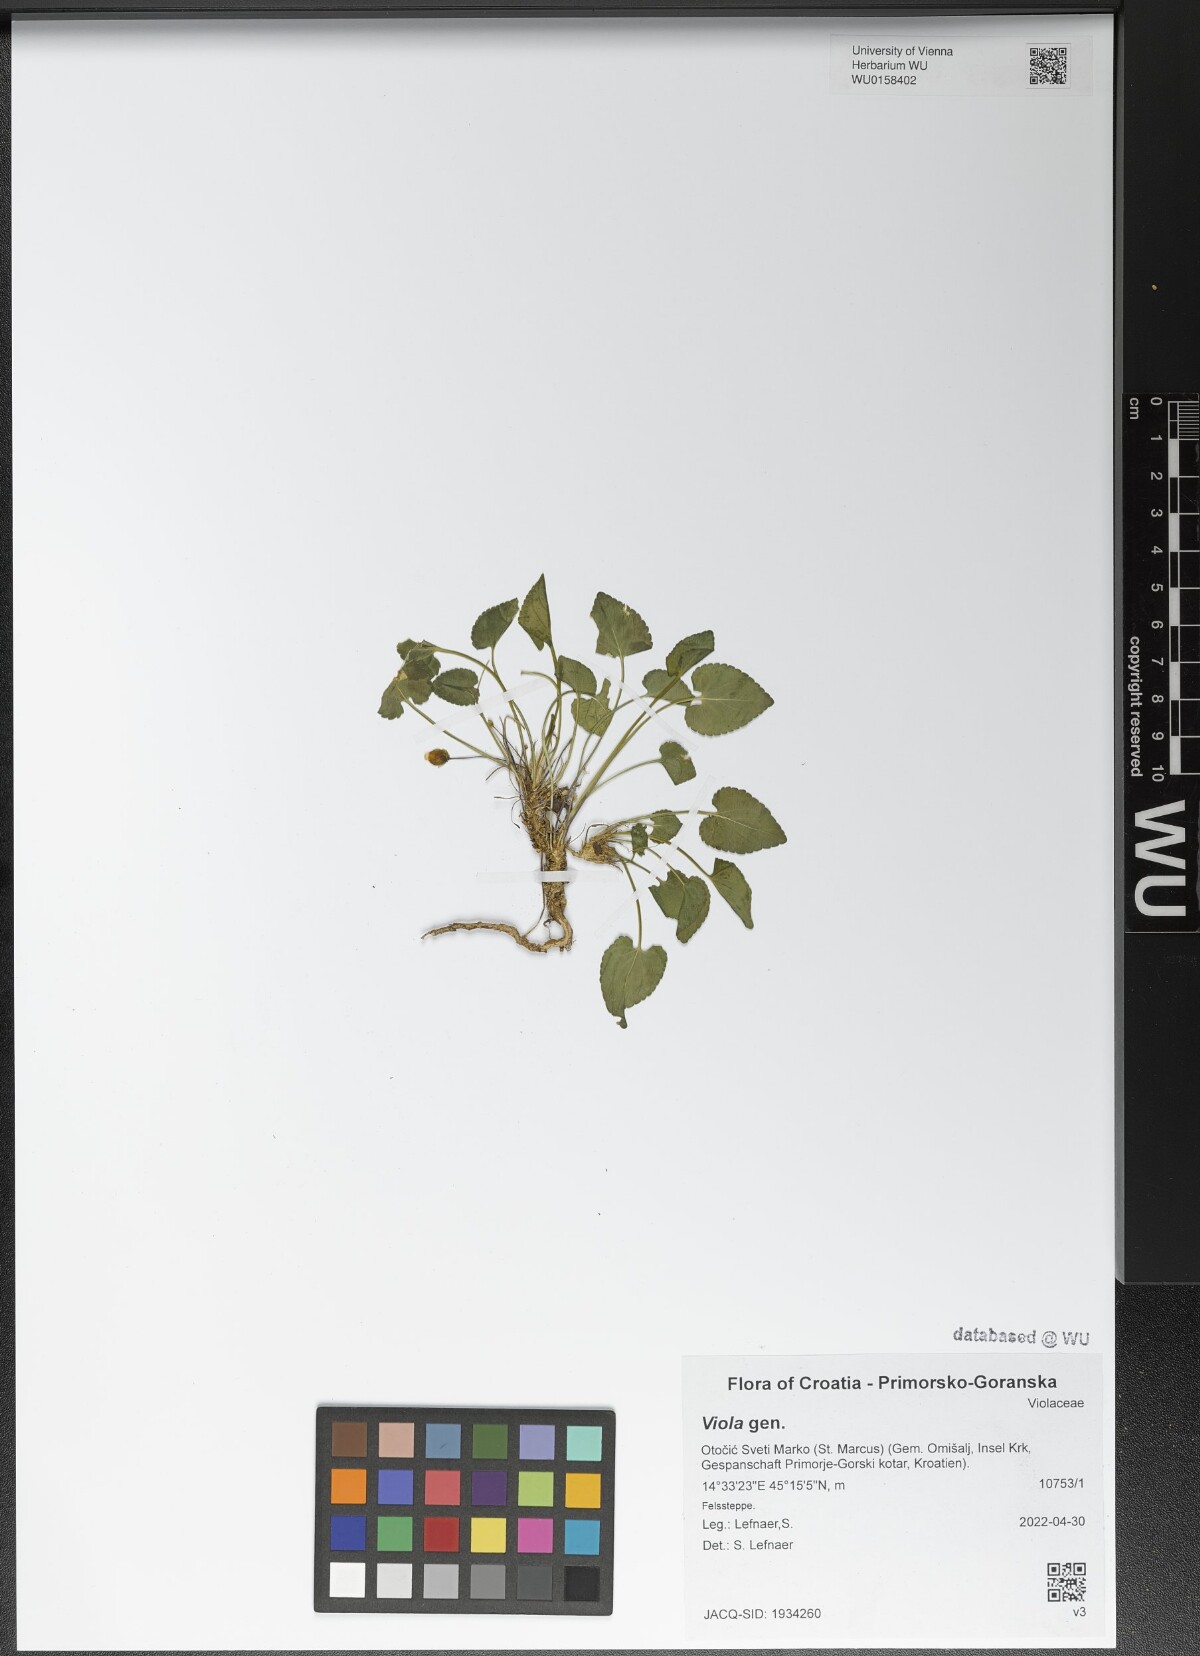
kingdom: Plantae
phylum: Tracheophyta
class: Magnoliopsida
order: Malpighiales
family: Violaceae
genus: Viola
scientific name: Viola
